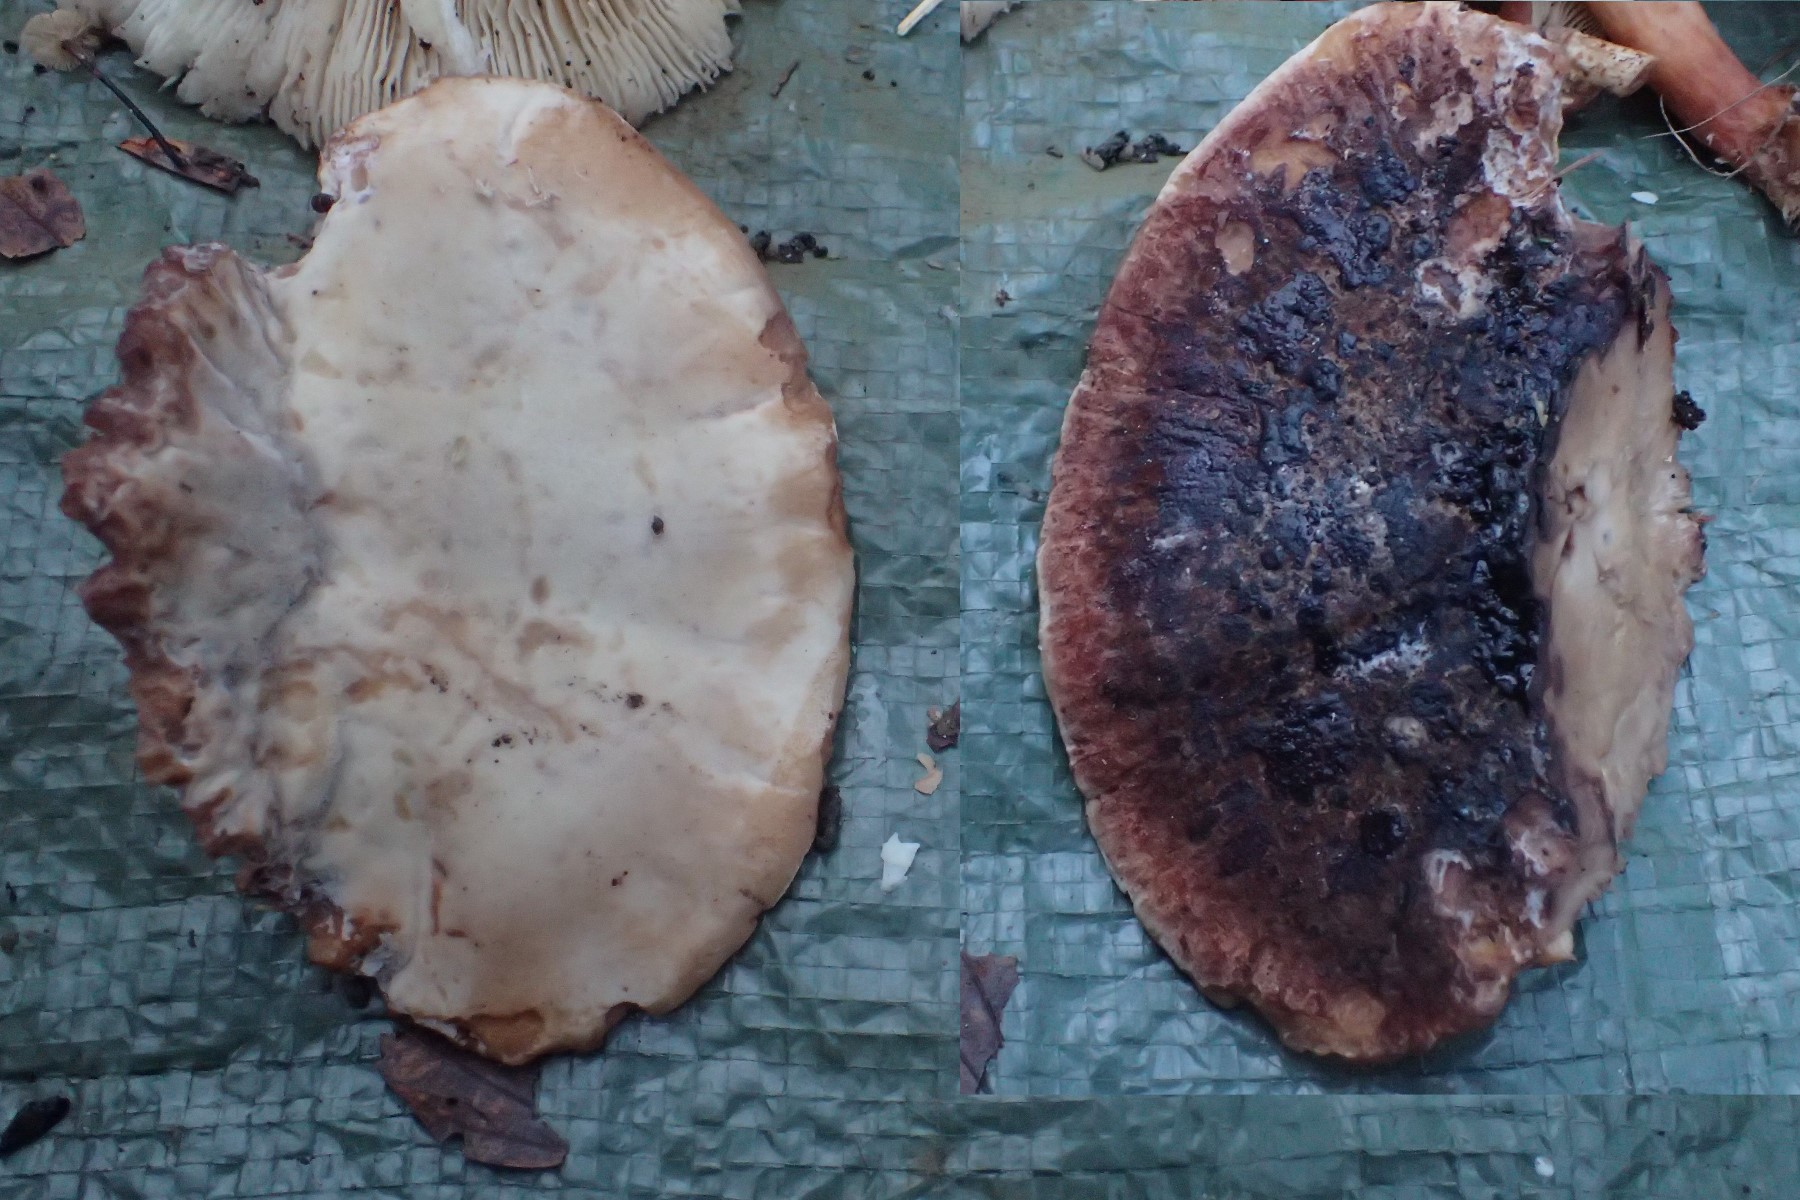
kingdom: Fungi
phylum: Basidiomycota
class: Agaricomycetes
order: Polyporales
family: Ischnodermataceae
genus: Ischnoderma
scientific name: Ischnoderma resinosum
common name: løv-tjæreporesvamp
